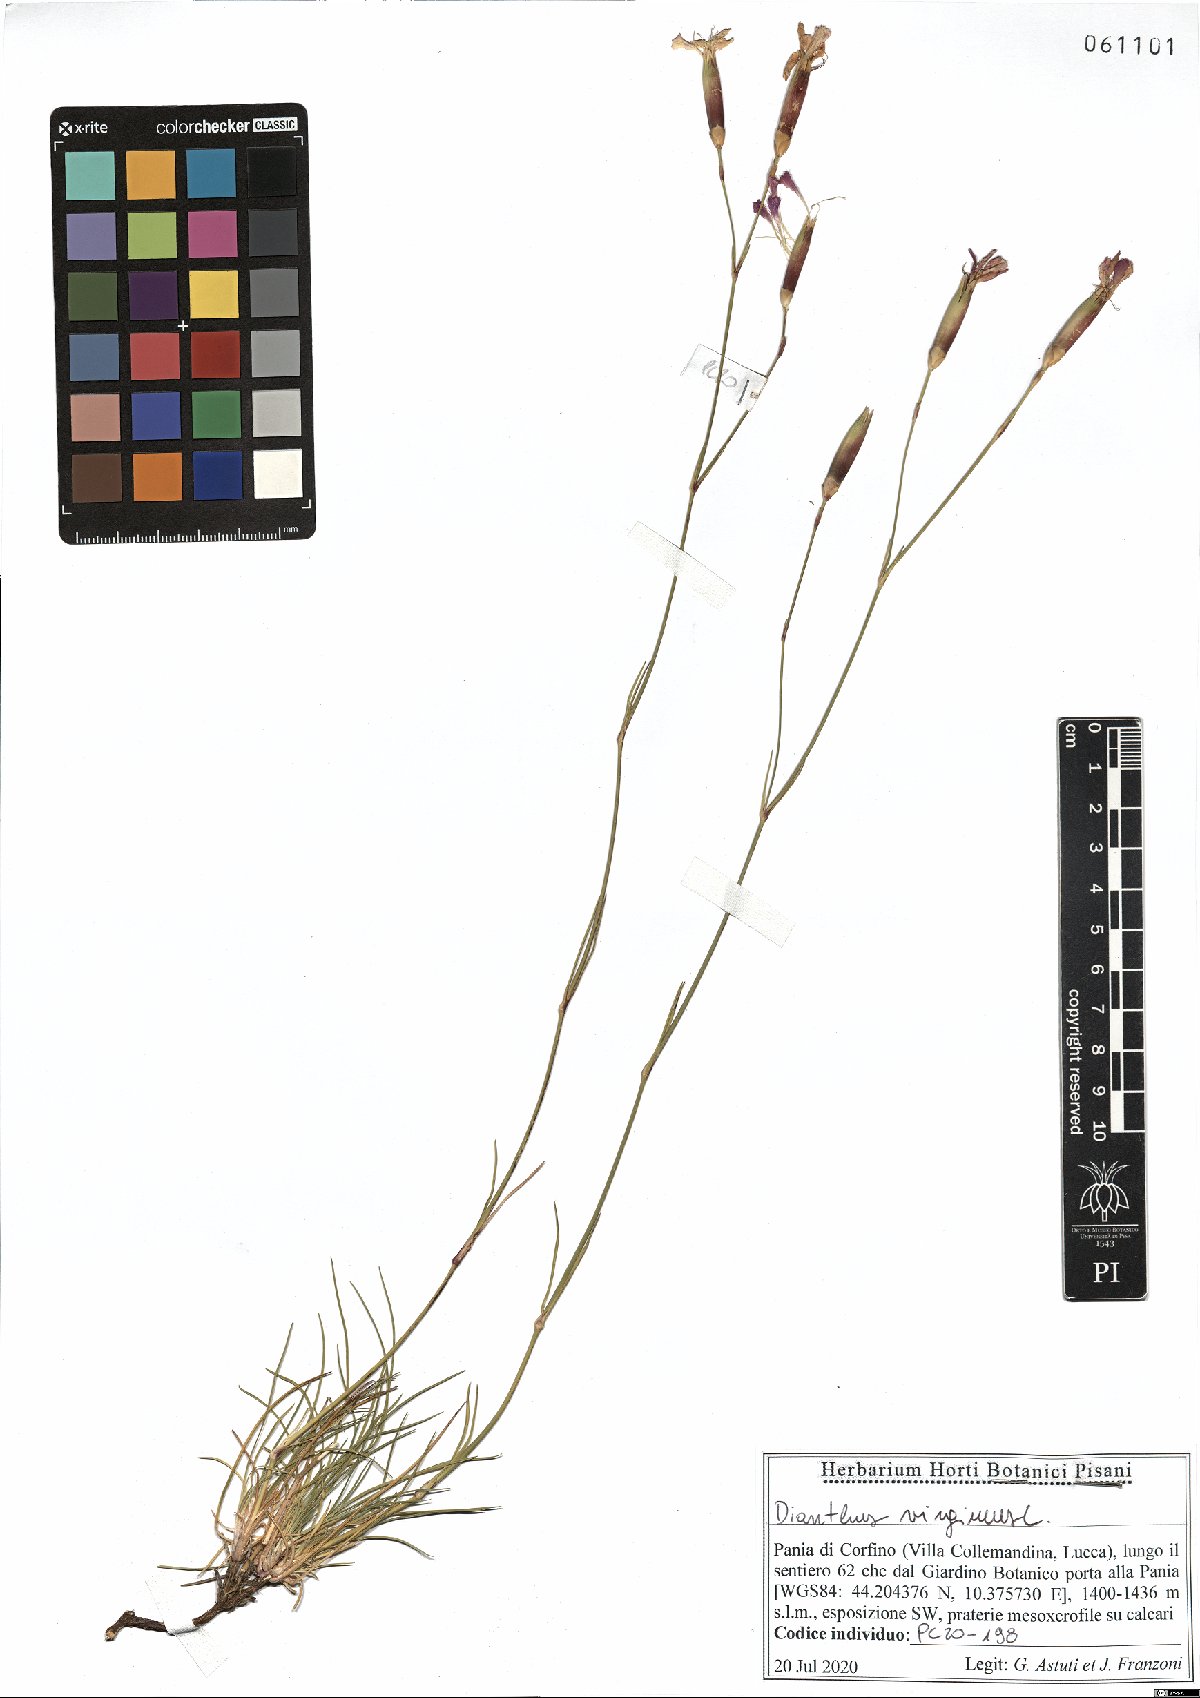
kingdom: Plantae
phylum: Tracheophyta
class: Magnoliopsida
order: Caryophyllales
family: Caryophyllaceae
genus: Dianthus
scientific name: Dianthus virgineus
